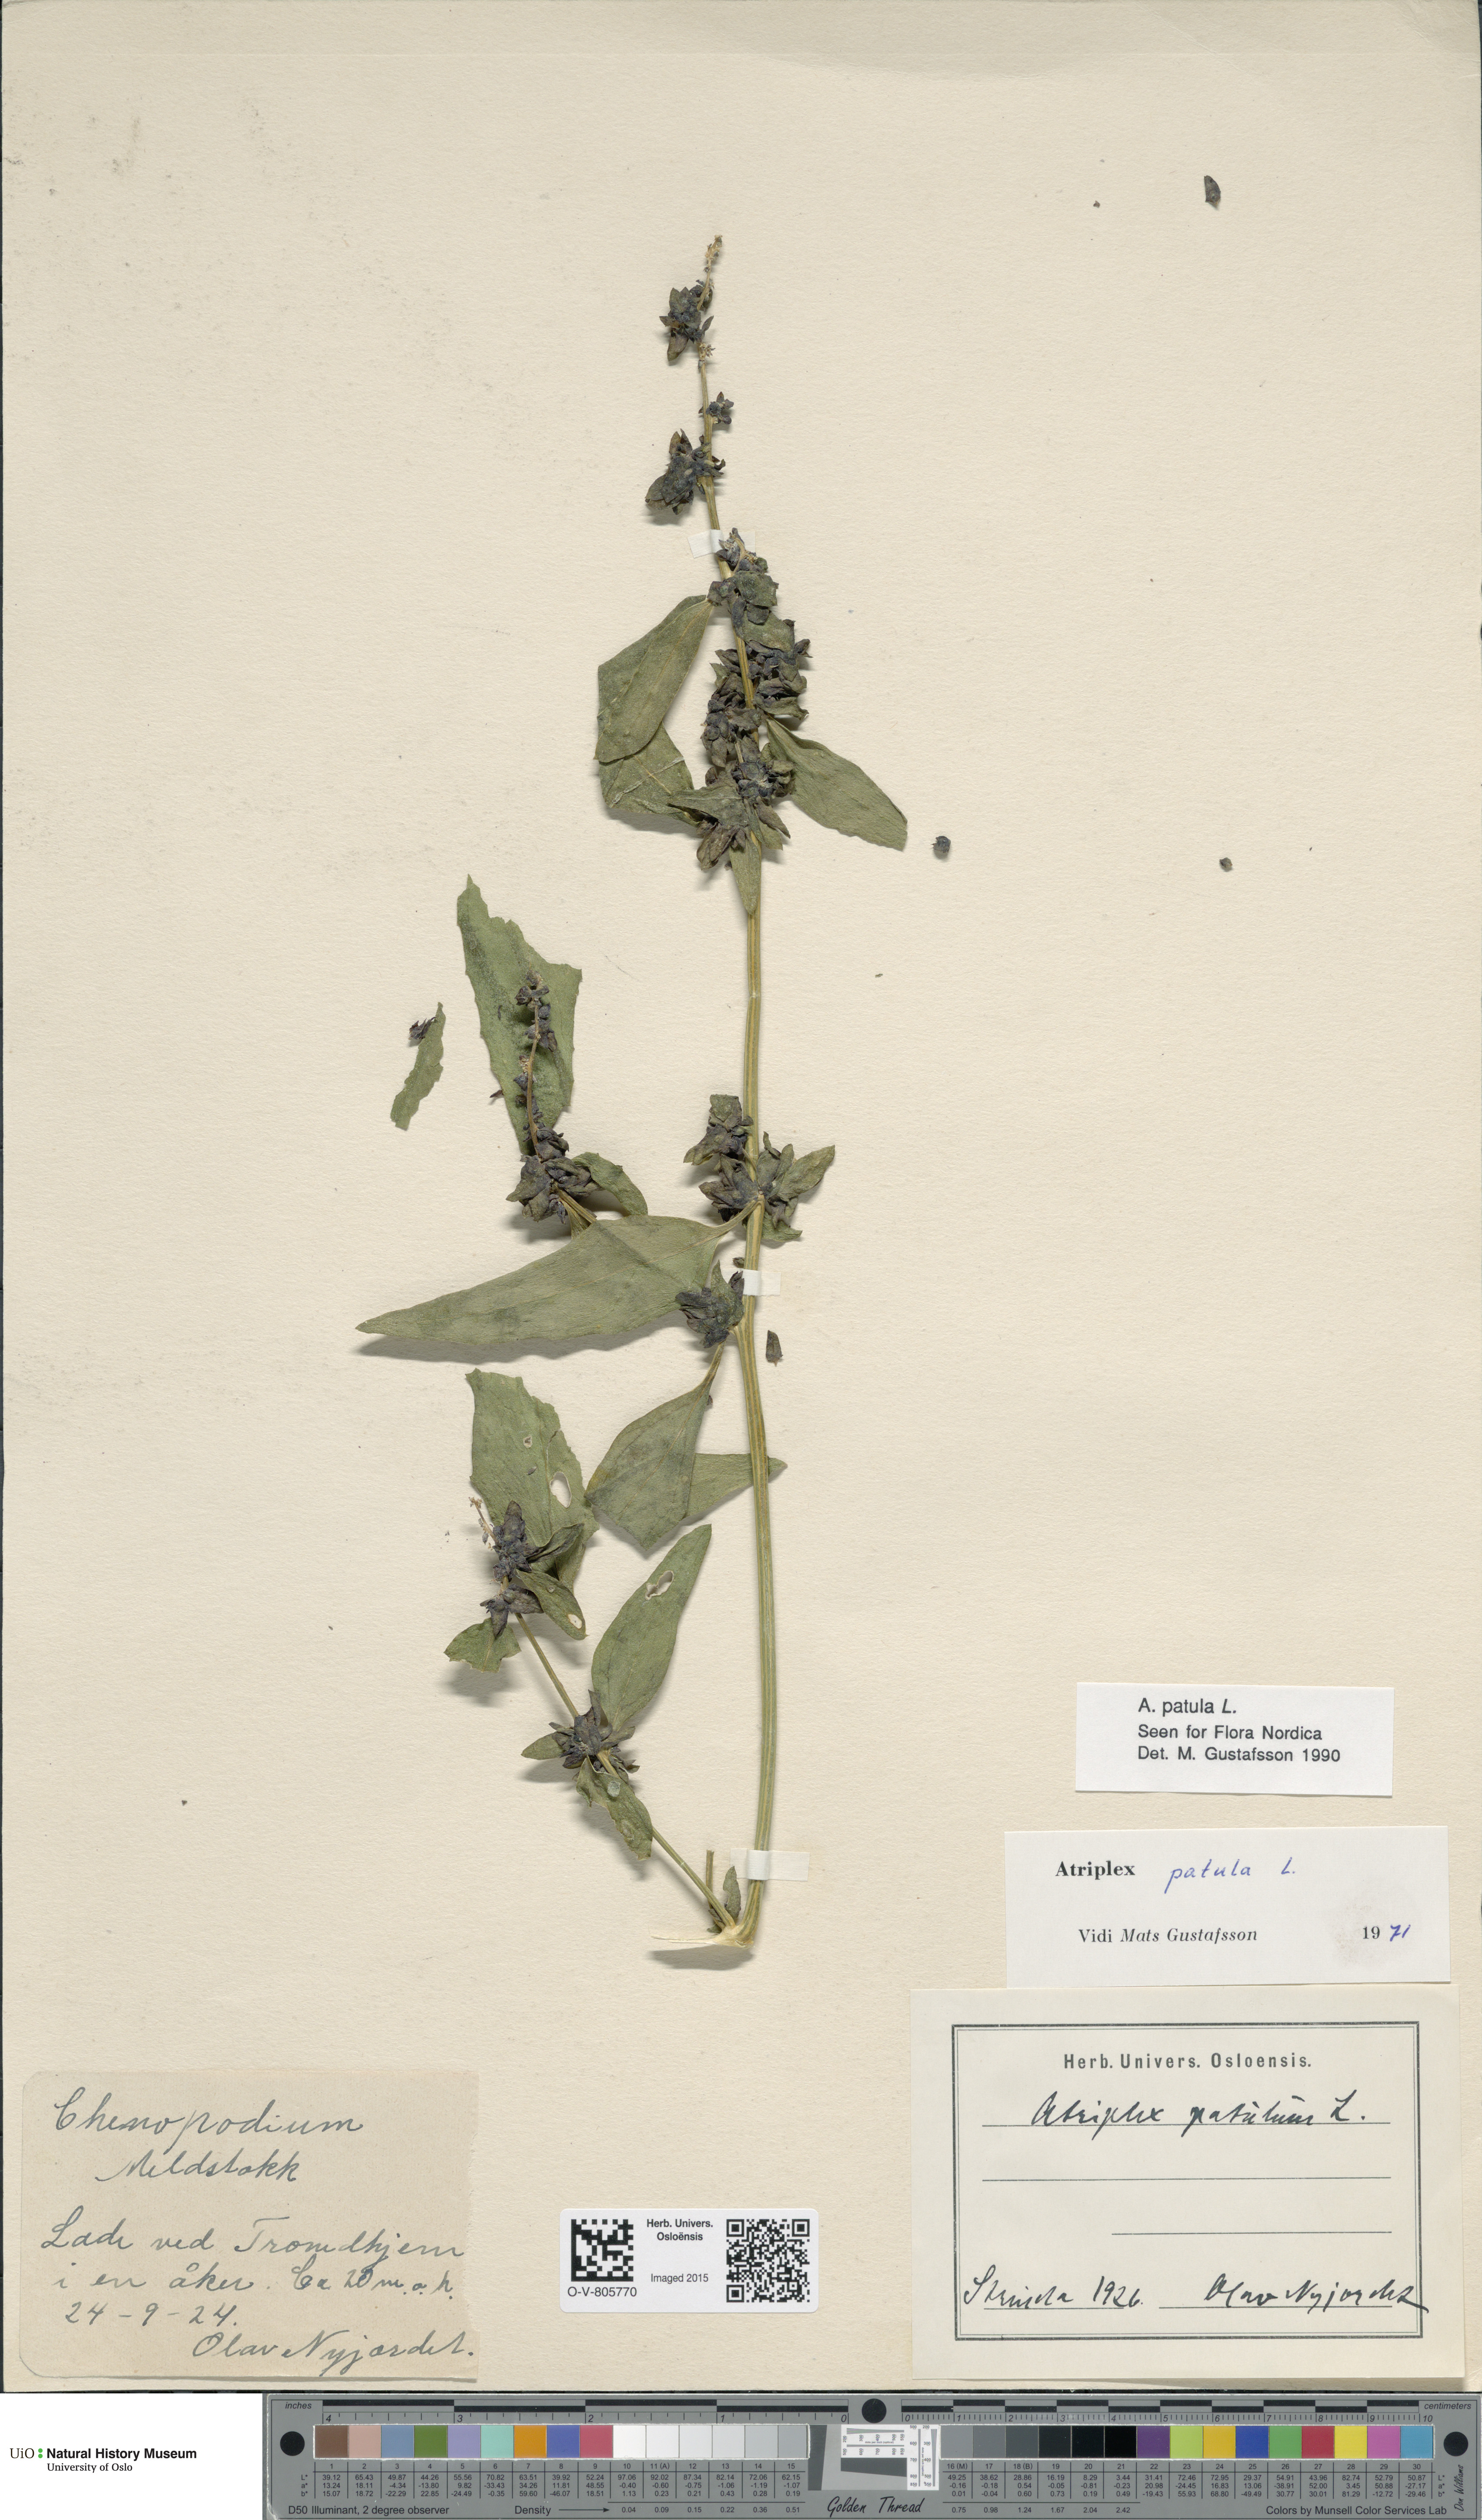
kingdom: Plantae
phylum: Tracheophyta
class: Magnoliopsida
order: Caryophyllales
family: Amaranthaceae
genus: Atriplex
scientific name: Atriplex patula
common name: Common orache
